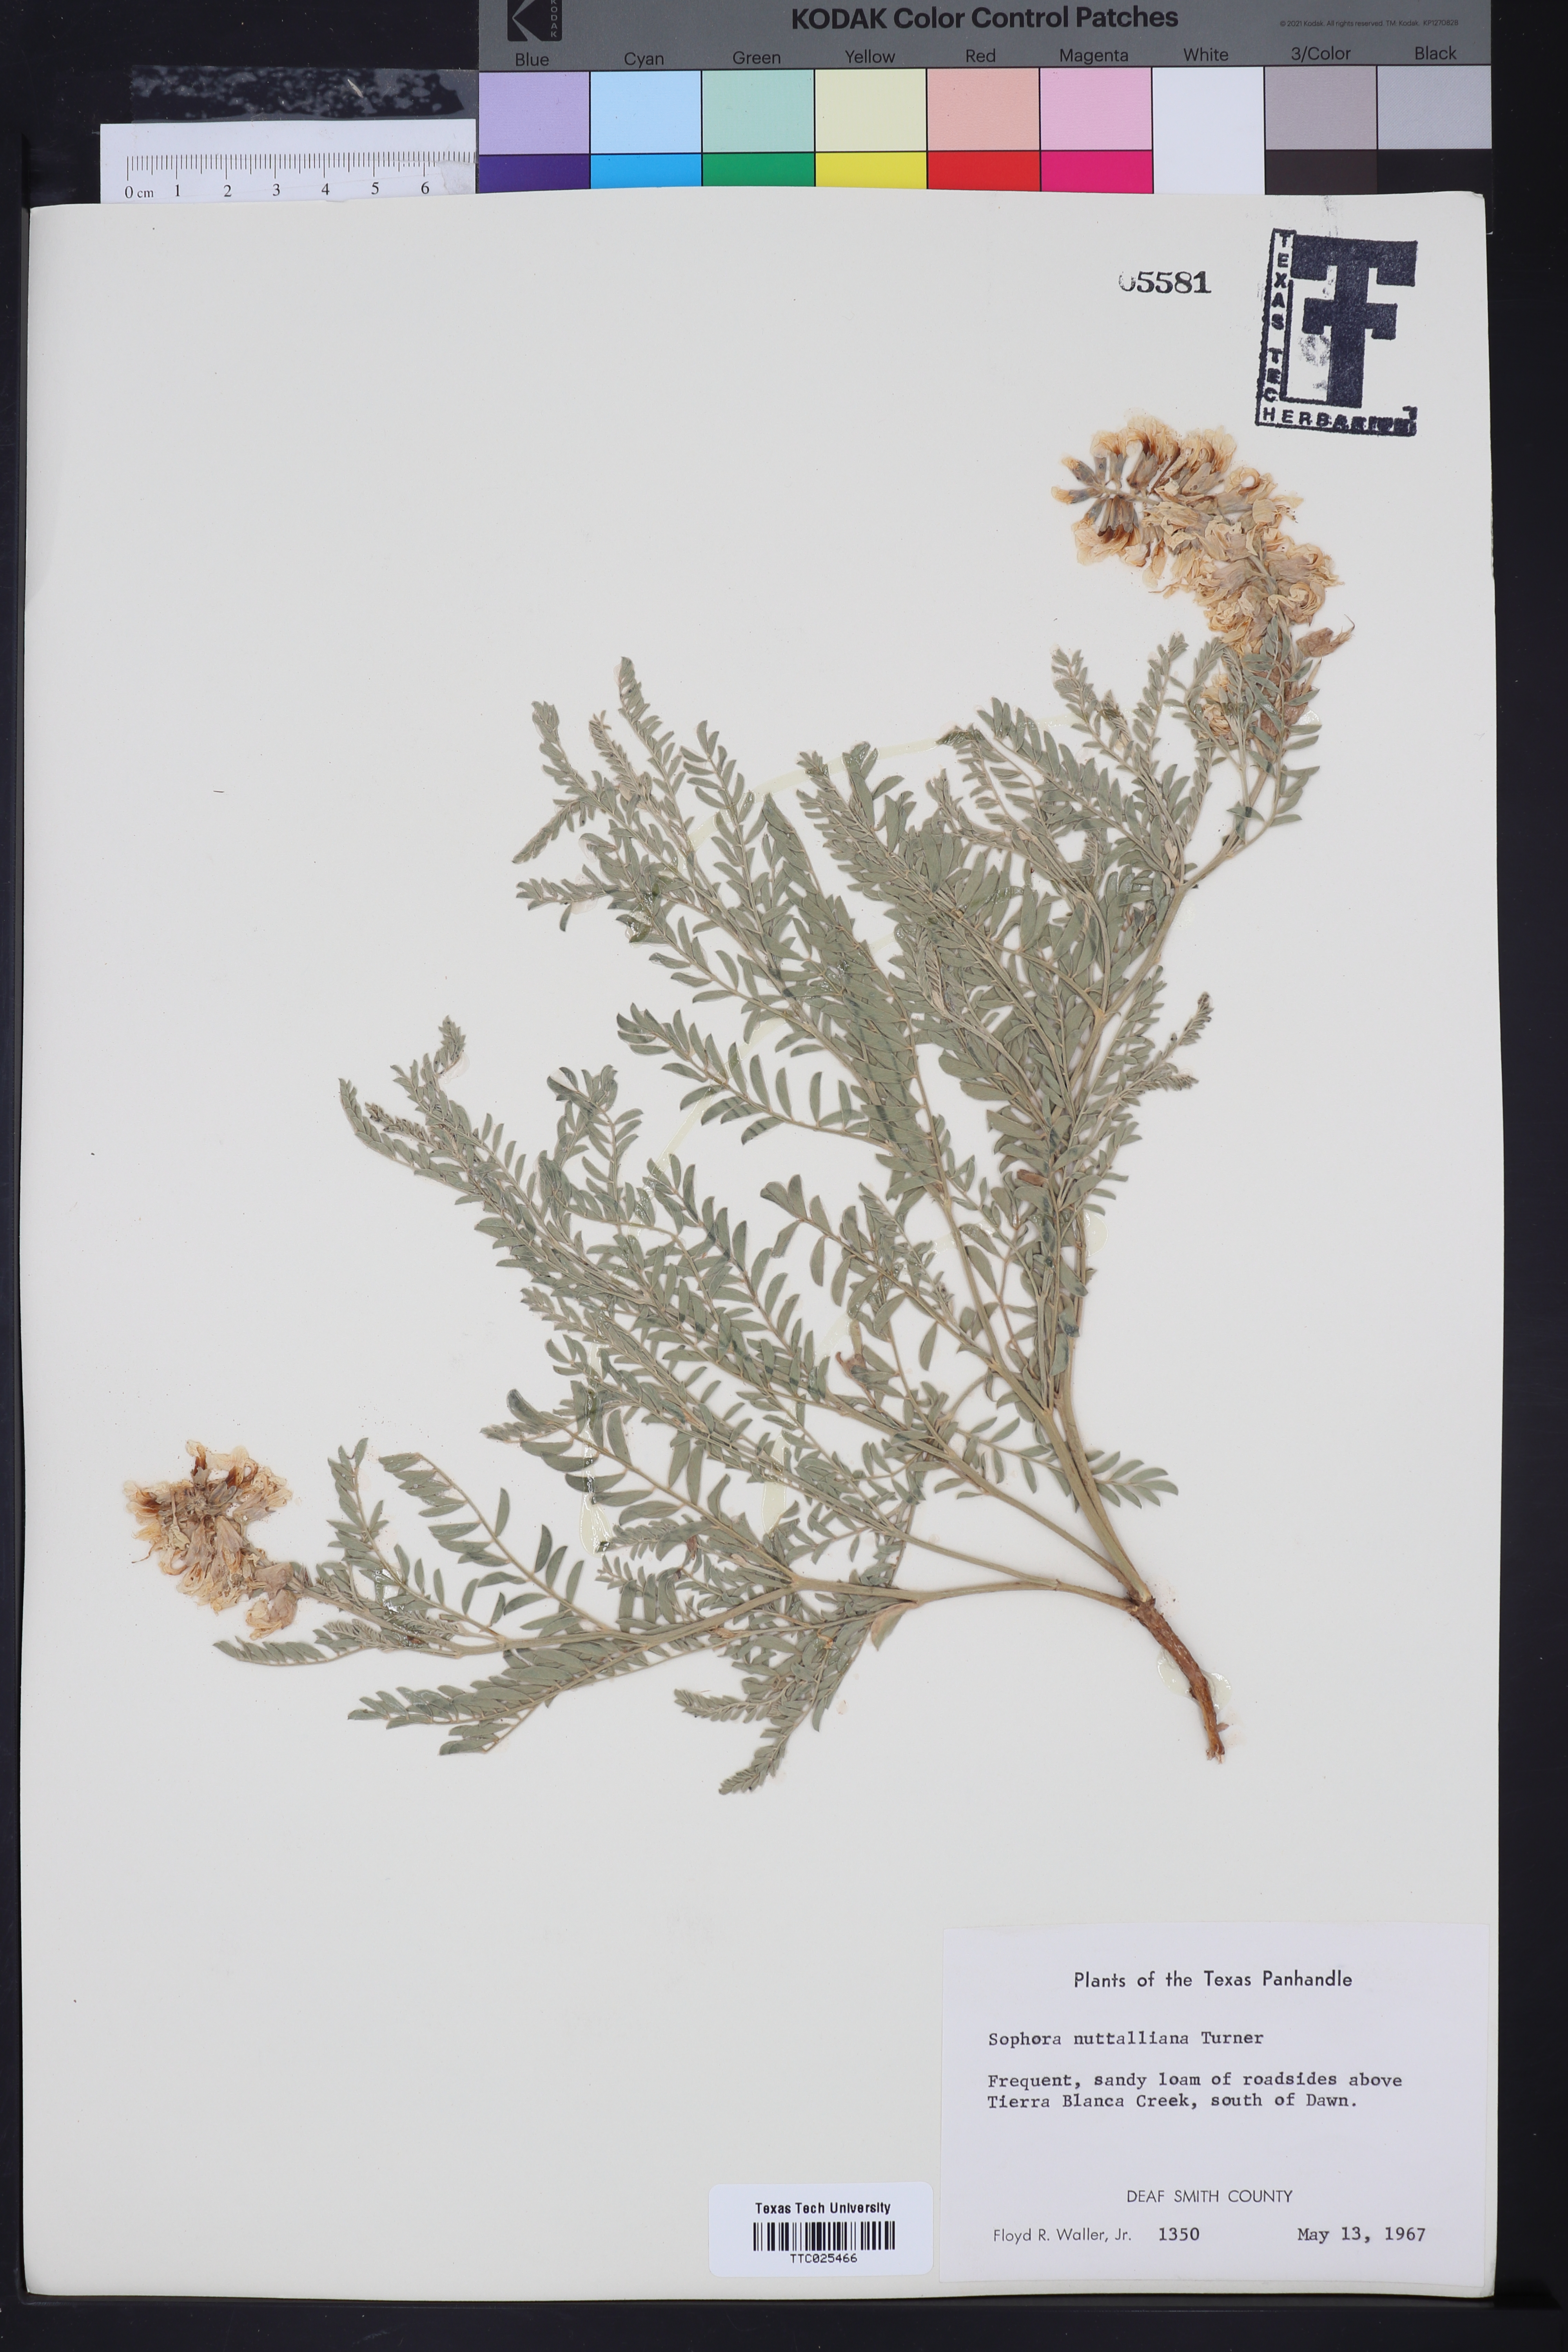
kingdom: Plantae
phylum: Tracheophyta
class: Magnoliopsida
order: Fabales
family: Fabaceae
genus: Sophora
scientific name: Sophora nuttalliana
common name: Silky sophora
